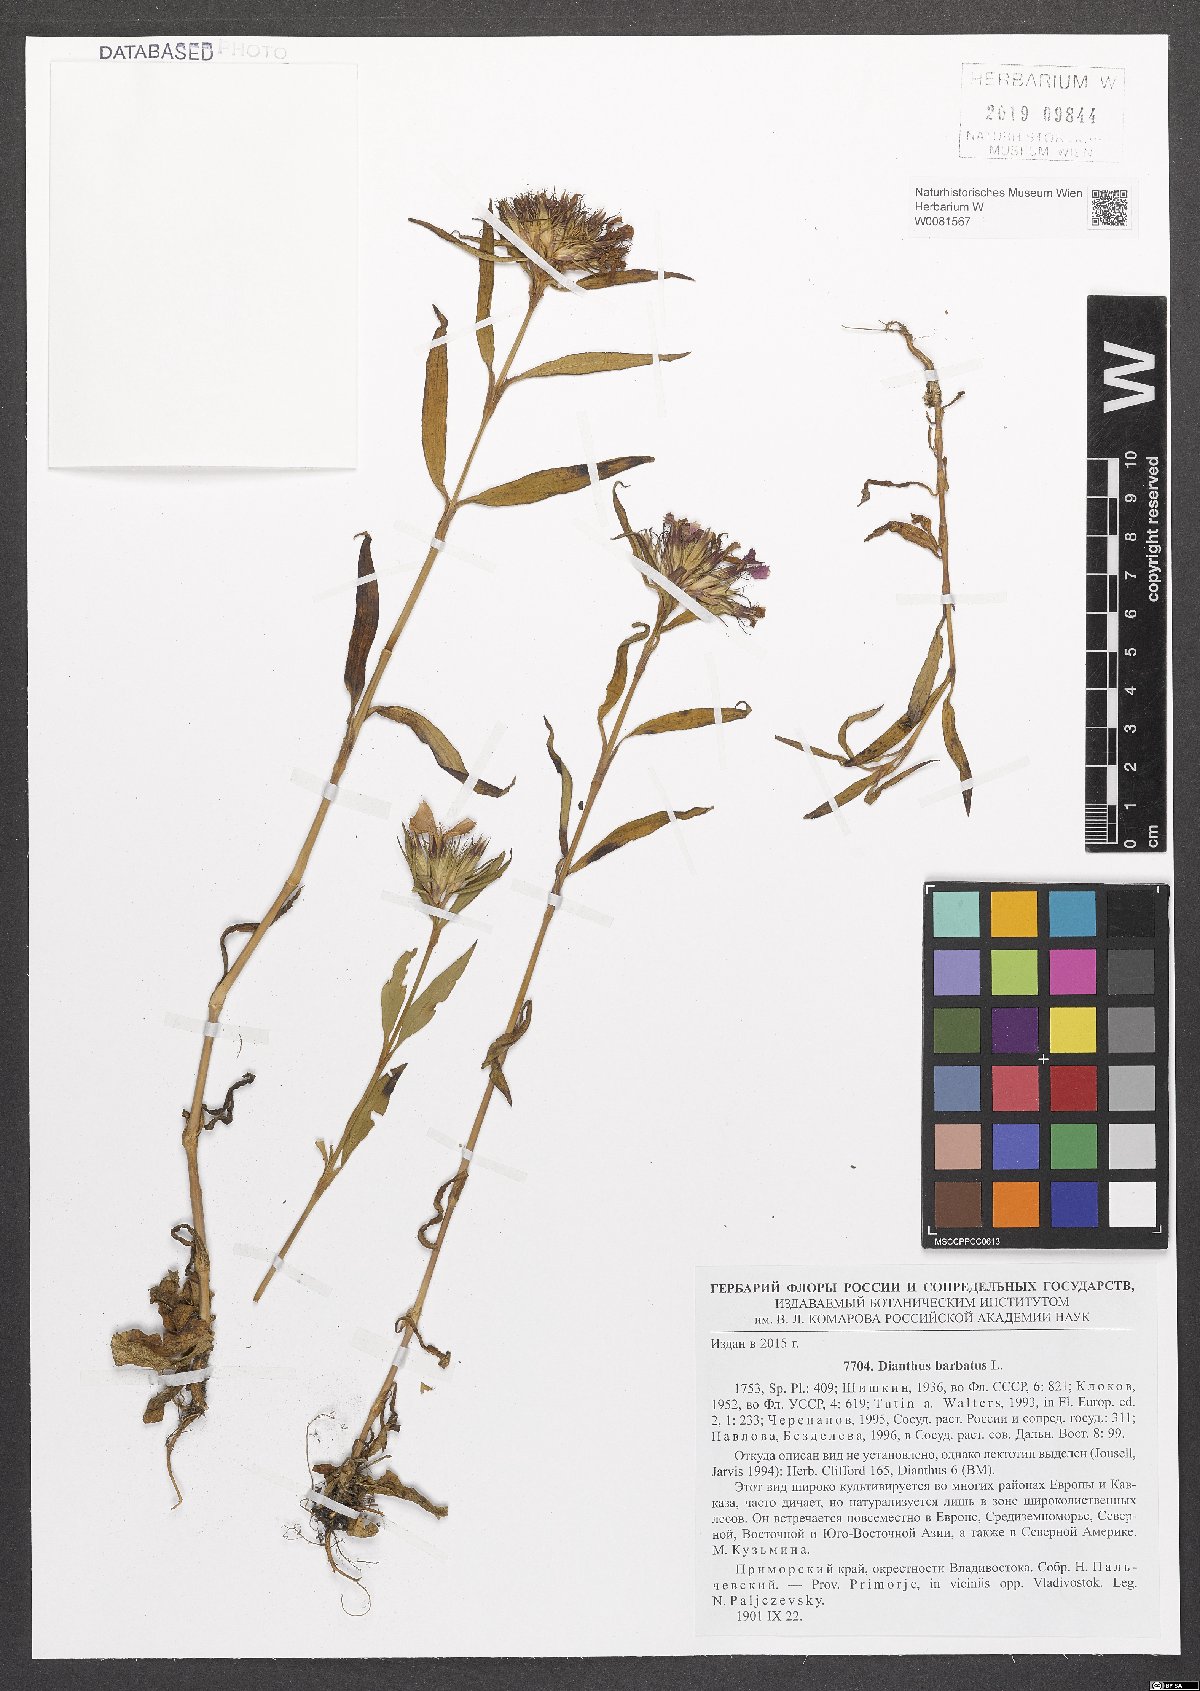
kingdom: Plantae
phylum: Tracheophyta
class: Magnoliopsida
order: Caryophyllales
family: Caryophyllaceae
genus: Dianthus
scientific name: Dianthus barbatus
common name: Sweet-william
